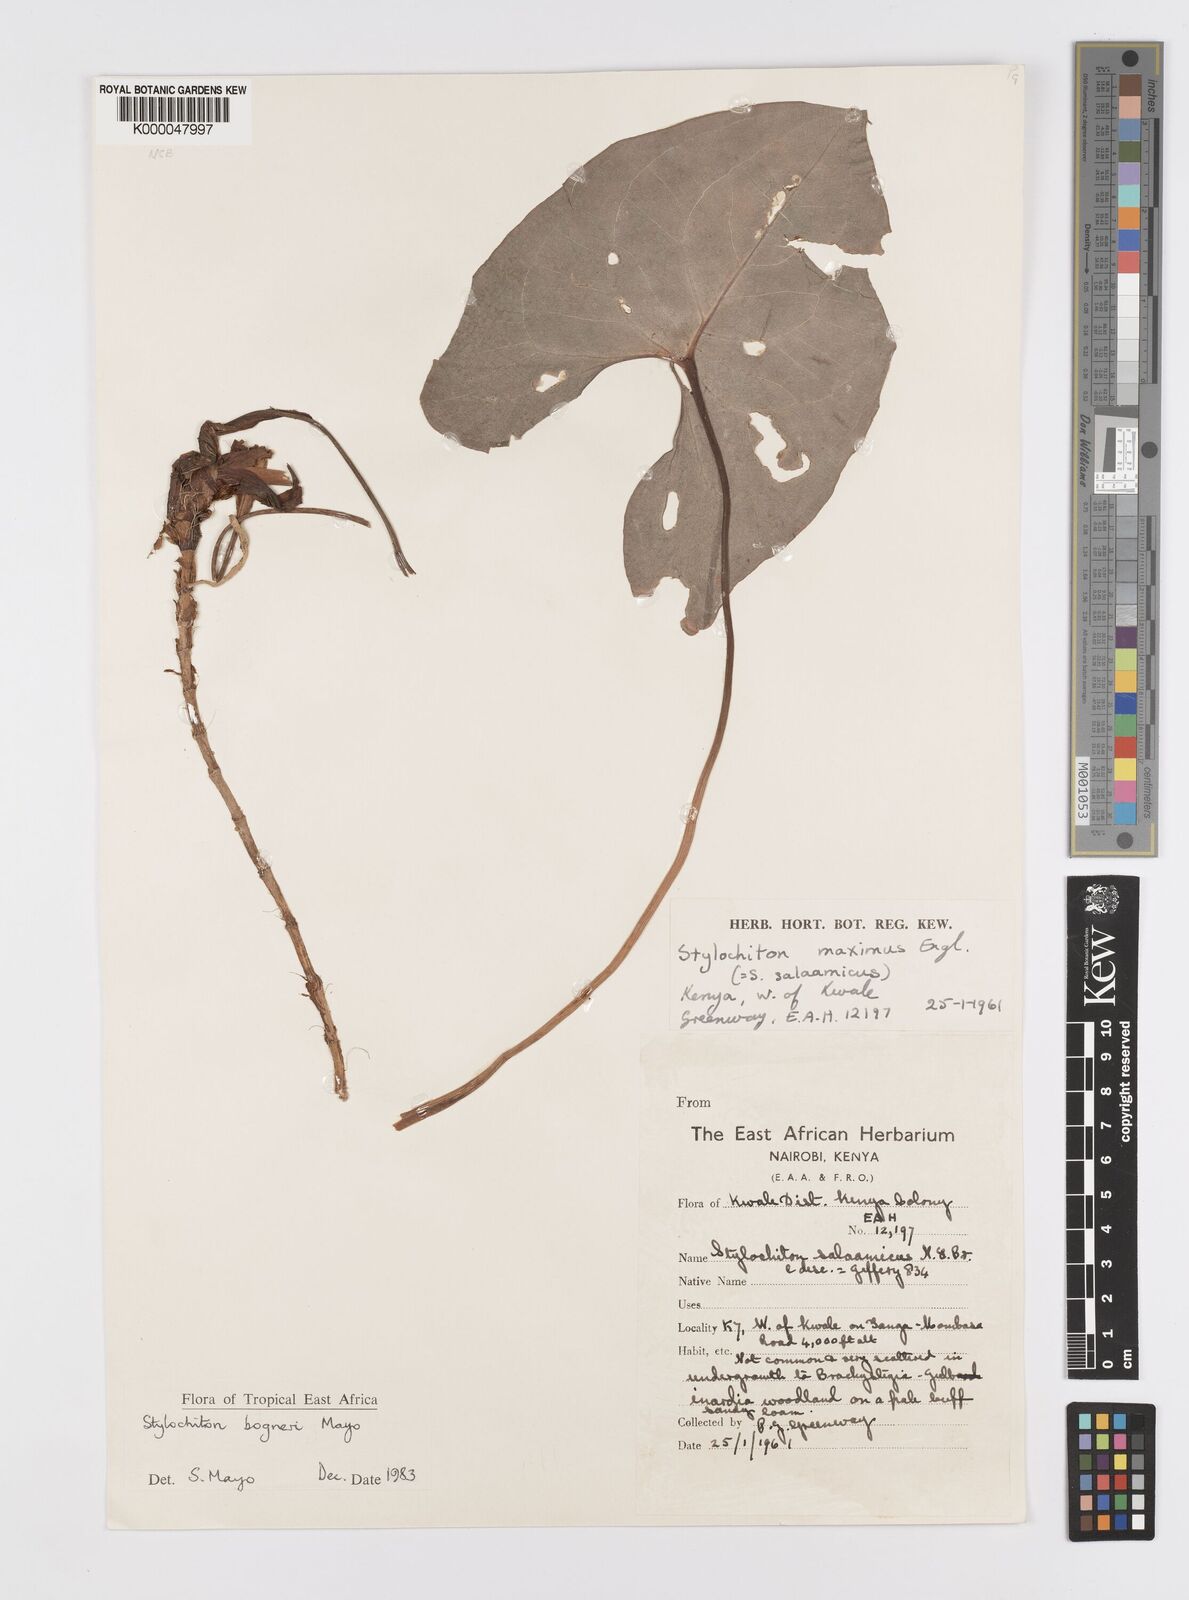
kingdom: Plantae
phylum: Tracheophyta
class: Liliopsida
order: Alismatales
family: Araceae
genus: Stylochaeton
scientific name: Stylochaeton bogneri
